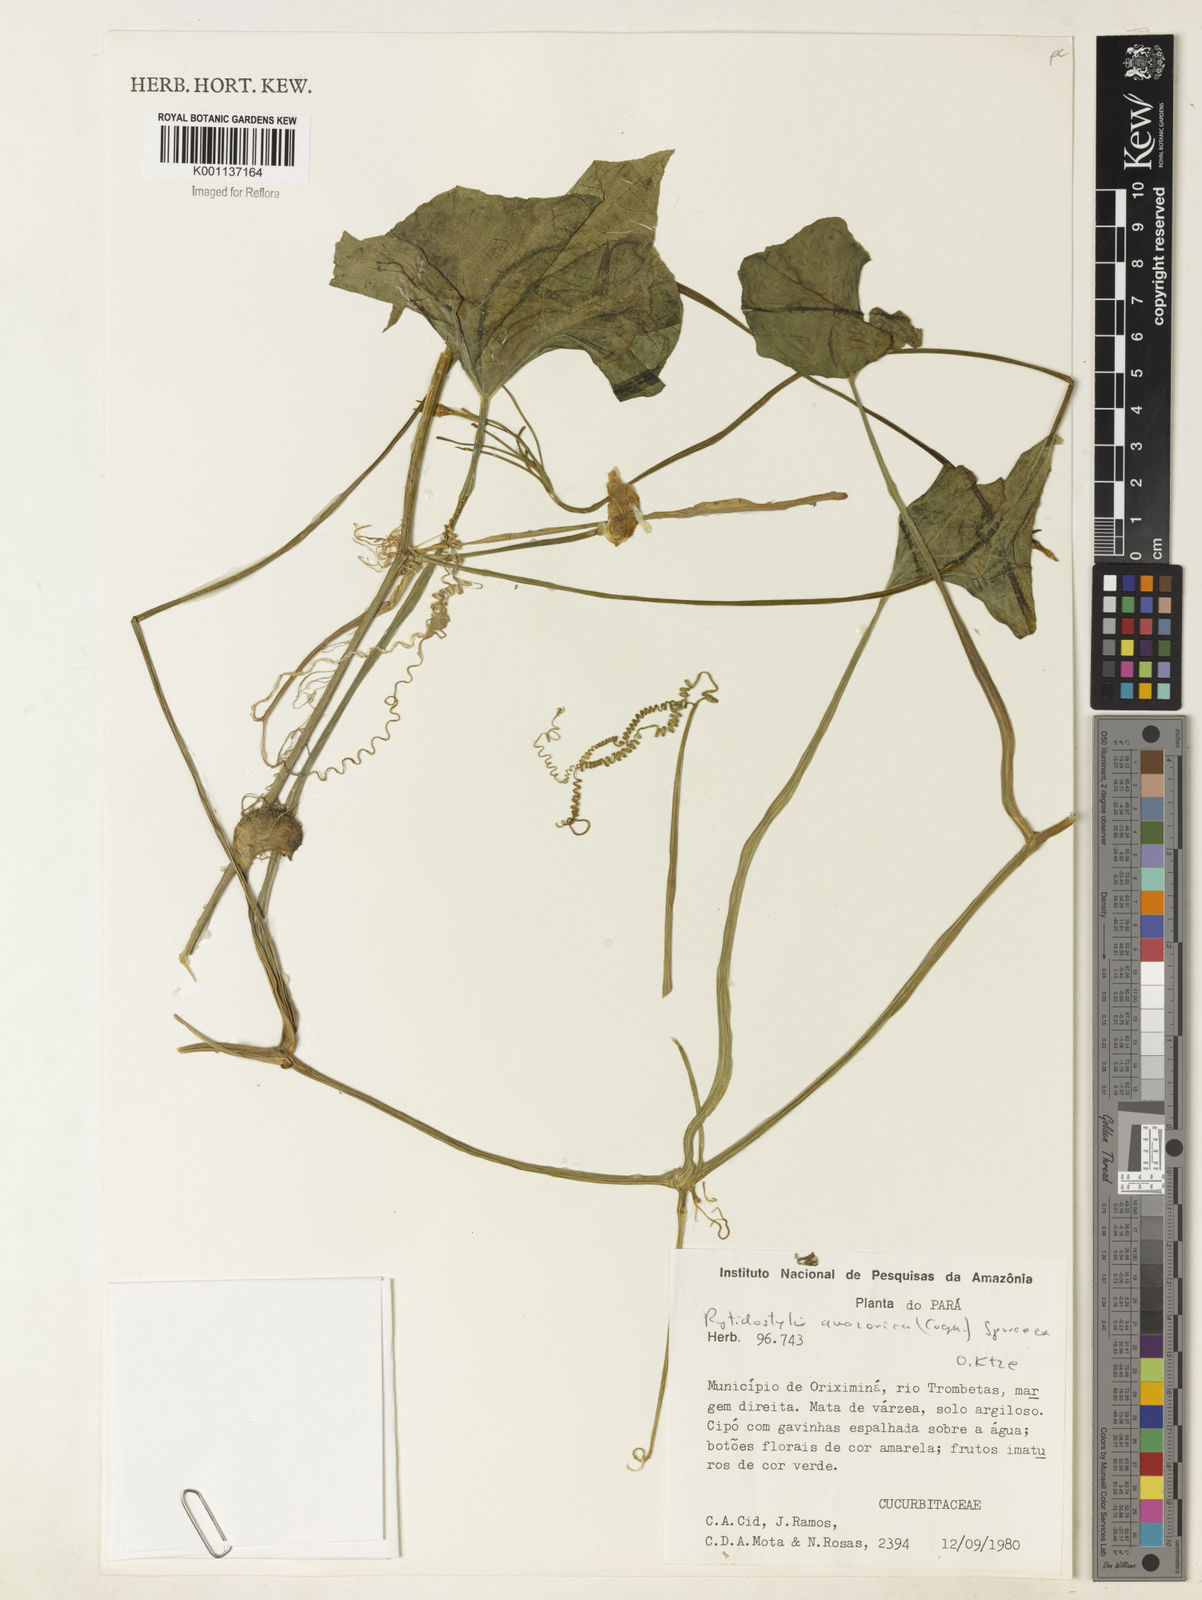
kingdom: Plantae
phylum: Tracheophyta
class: Magnoliopsida
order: Cucurbitales
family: Cucurbitaceae
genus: Cyclanthera
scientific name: Cyclanthera carthagenensis
